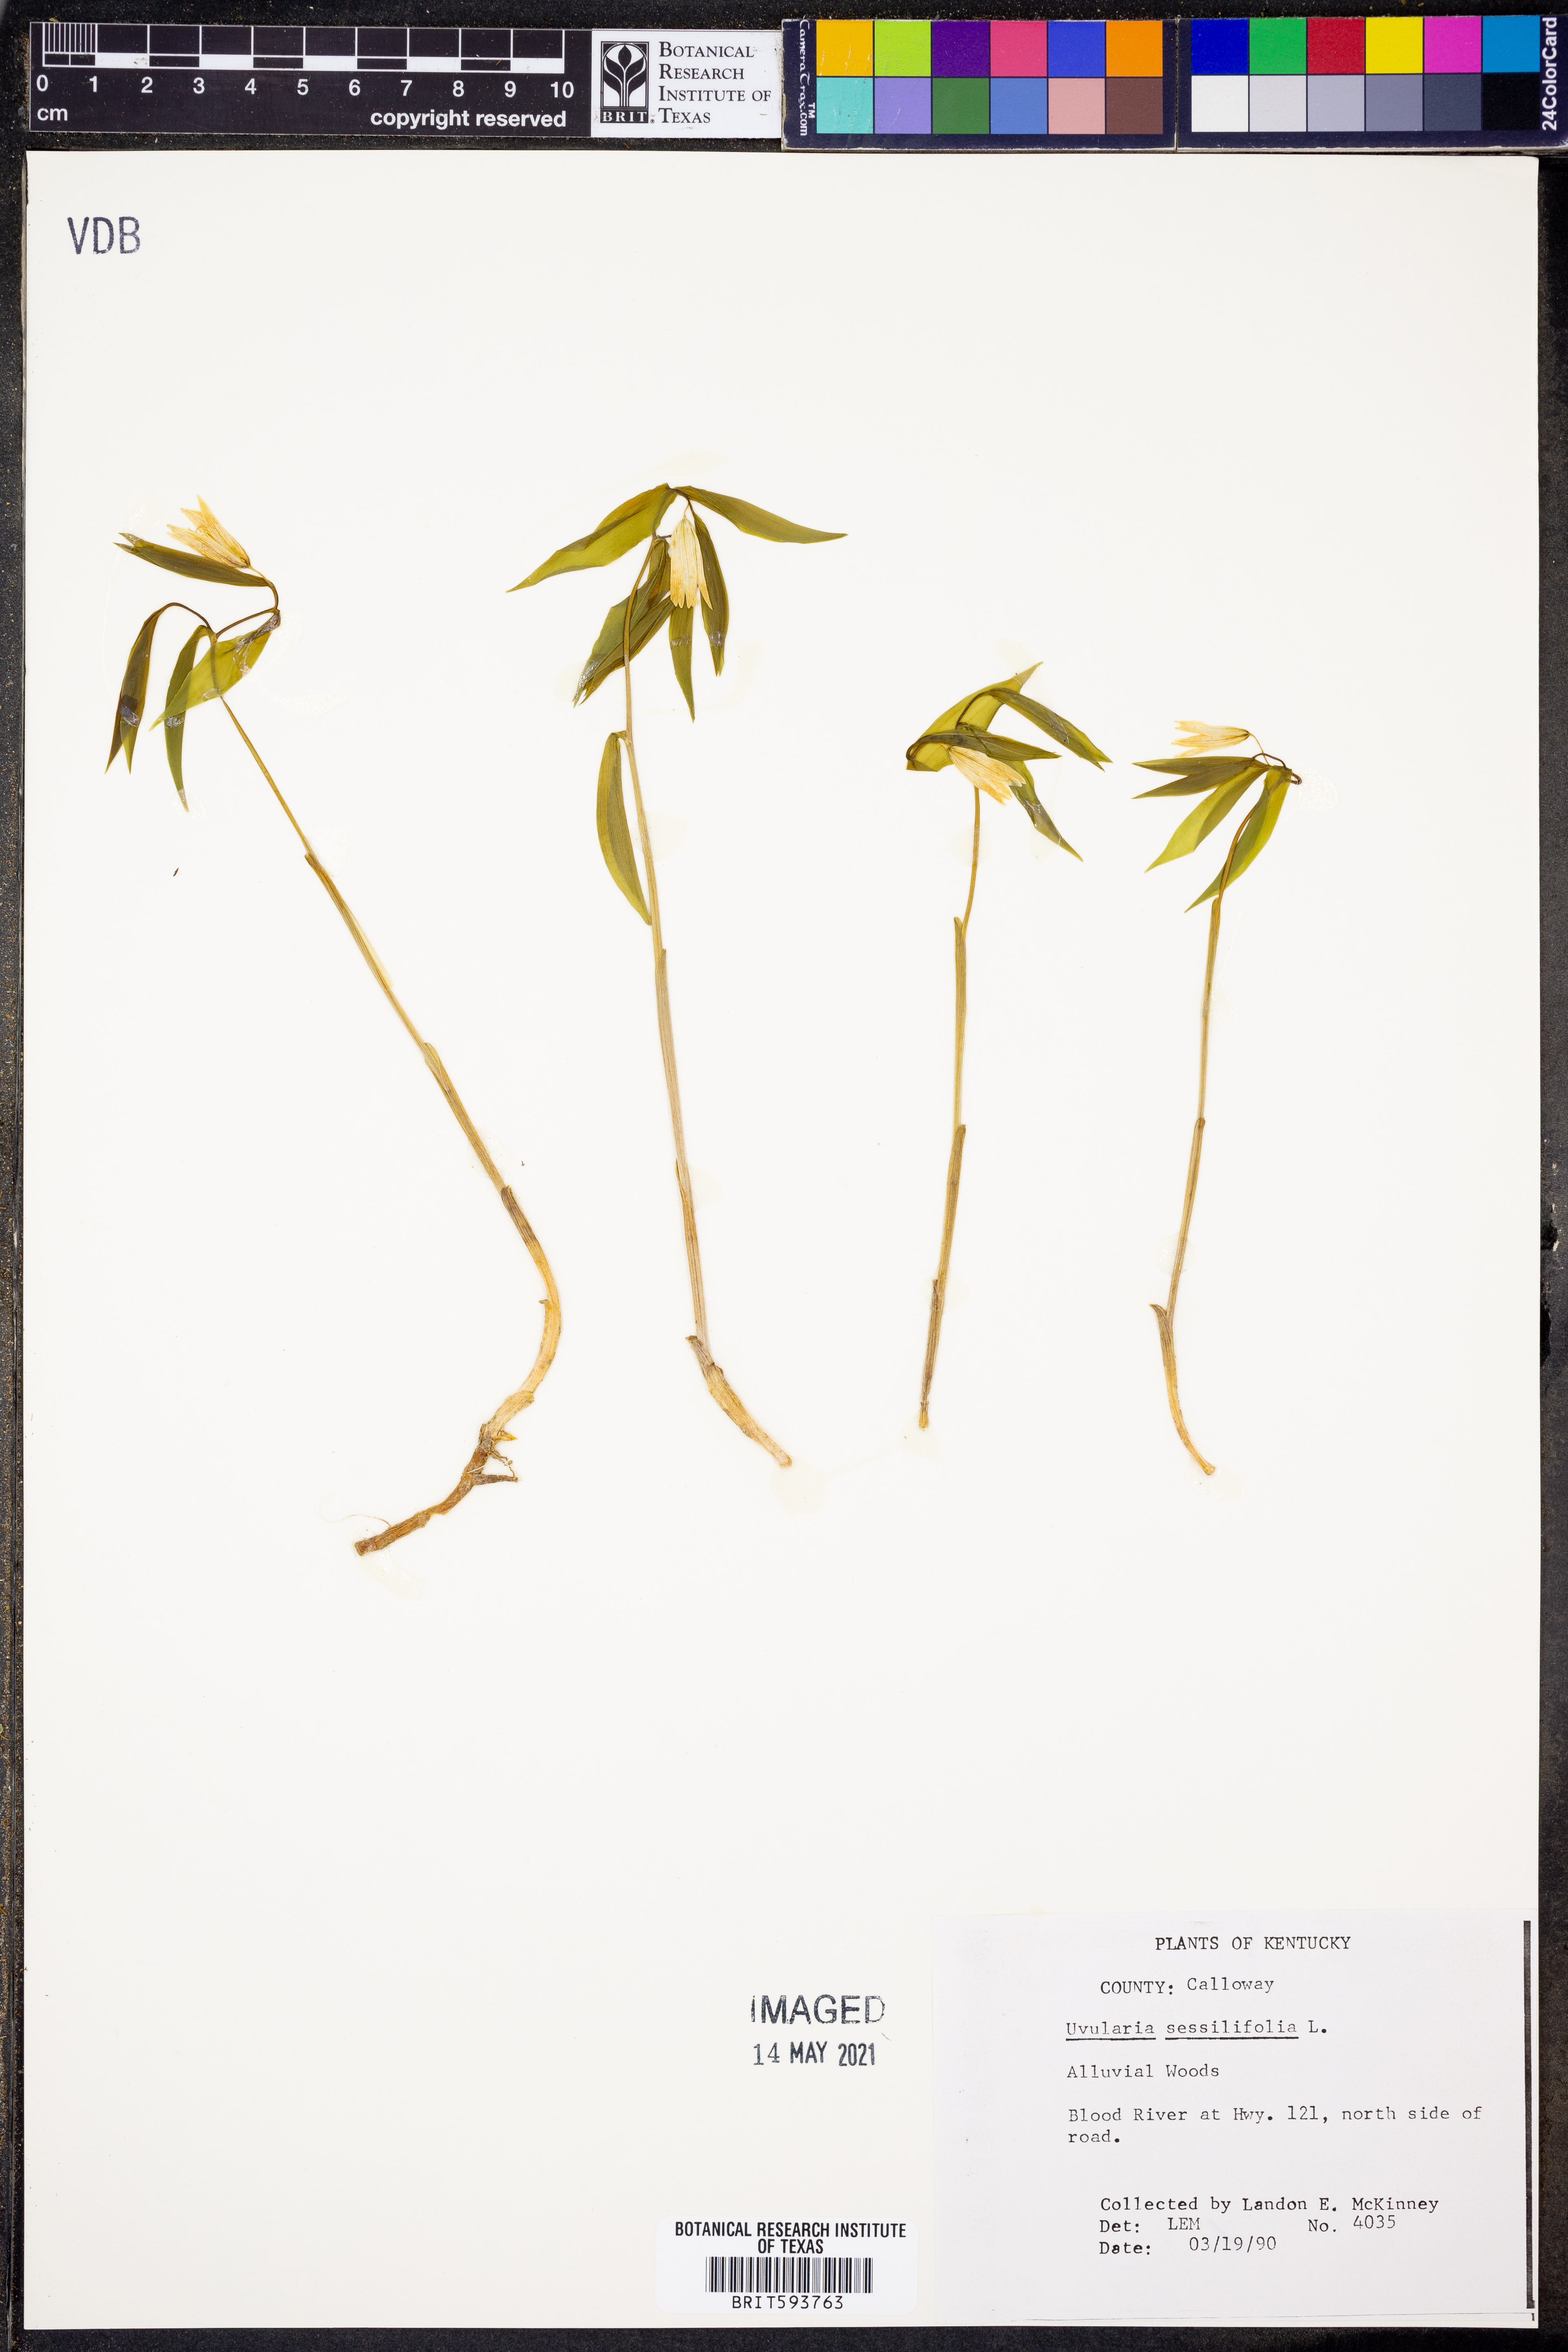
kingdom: Plantae
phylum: Tracheophyta
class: Liliopsida
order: Liliales
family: Colchicaceae
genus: Uvularia
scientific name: Uvularia sessilifolia
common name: Straw-lily
